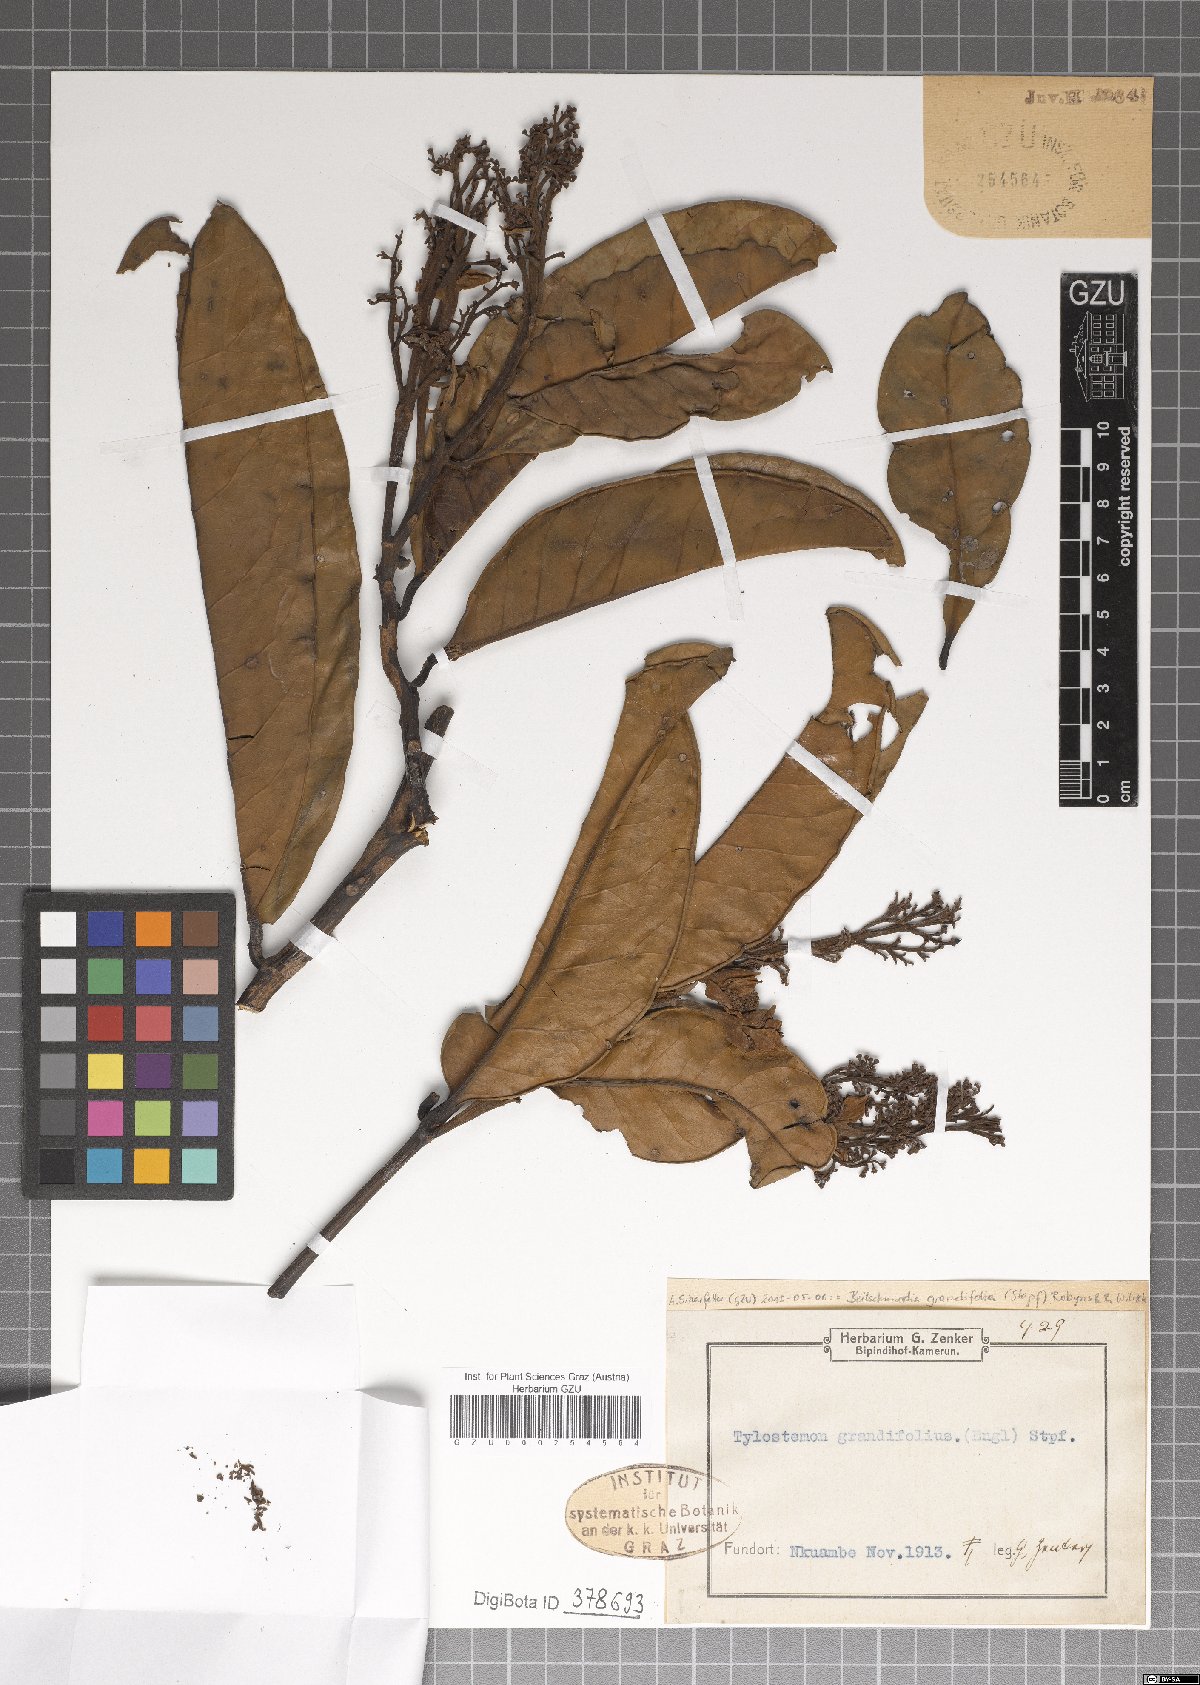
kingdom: Plantae
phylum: Tracheophyta
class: Magnoliopsida
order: Laurales
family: Lauraceae
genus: Beilschmiedia
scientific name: Beilschmiedia grandifolia
